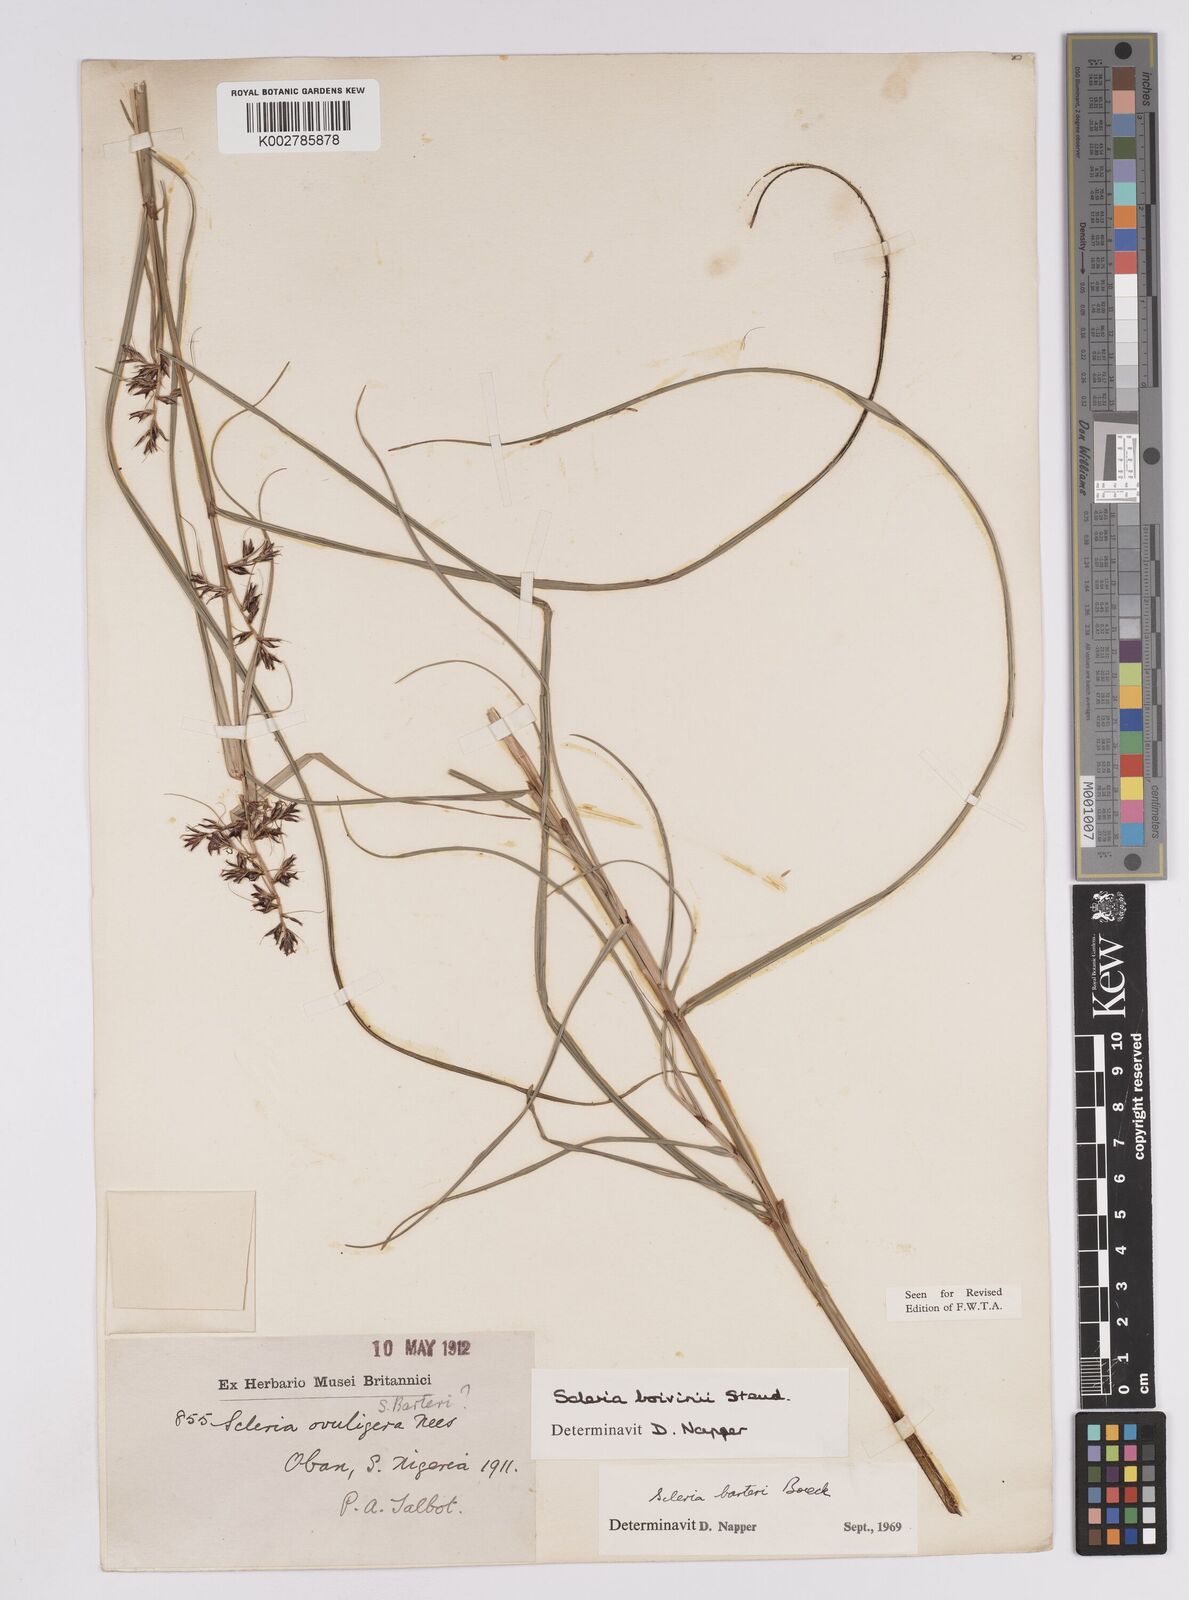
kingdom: Plantae
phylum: Tracheophyta
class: Liliopsida
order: Poales
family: Cyperaceae
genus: Scleria
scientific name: Scleria boivinii
